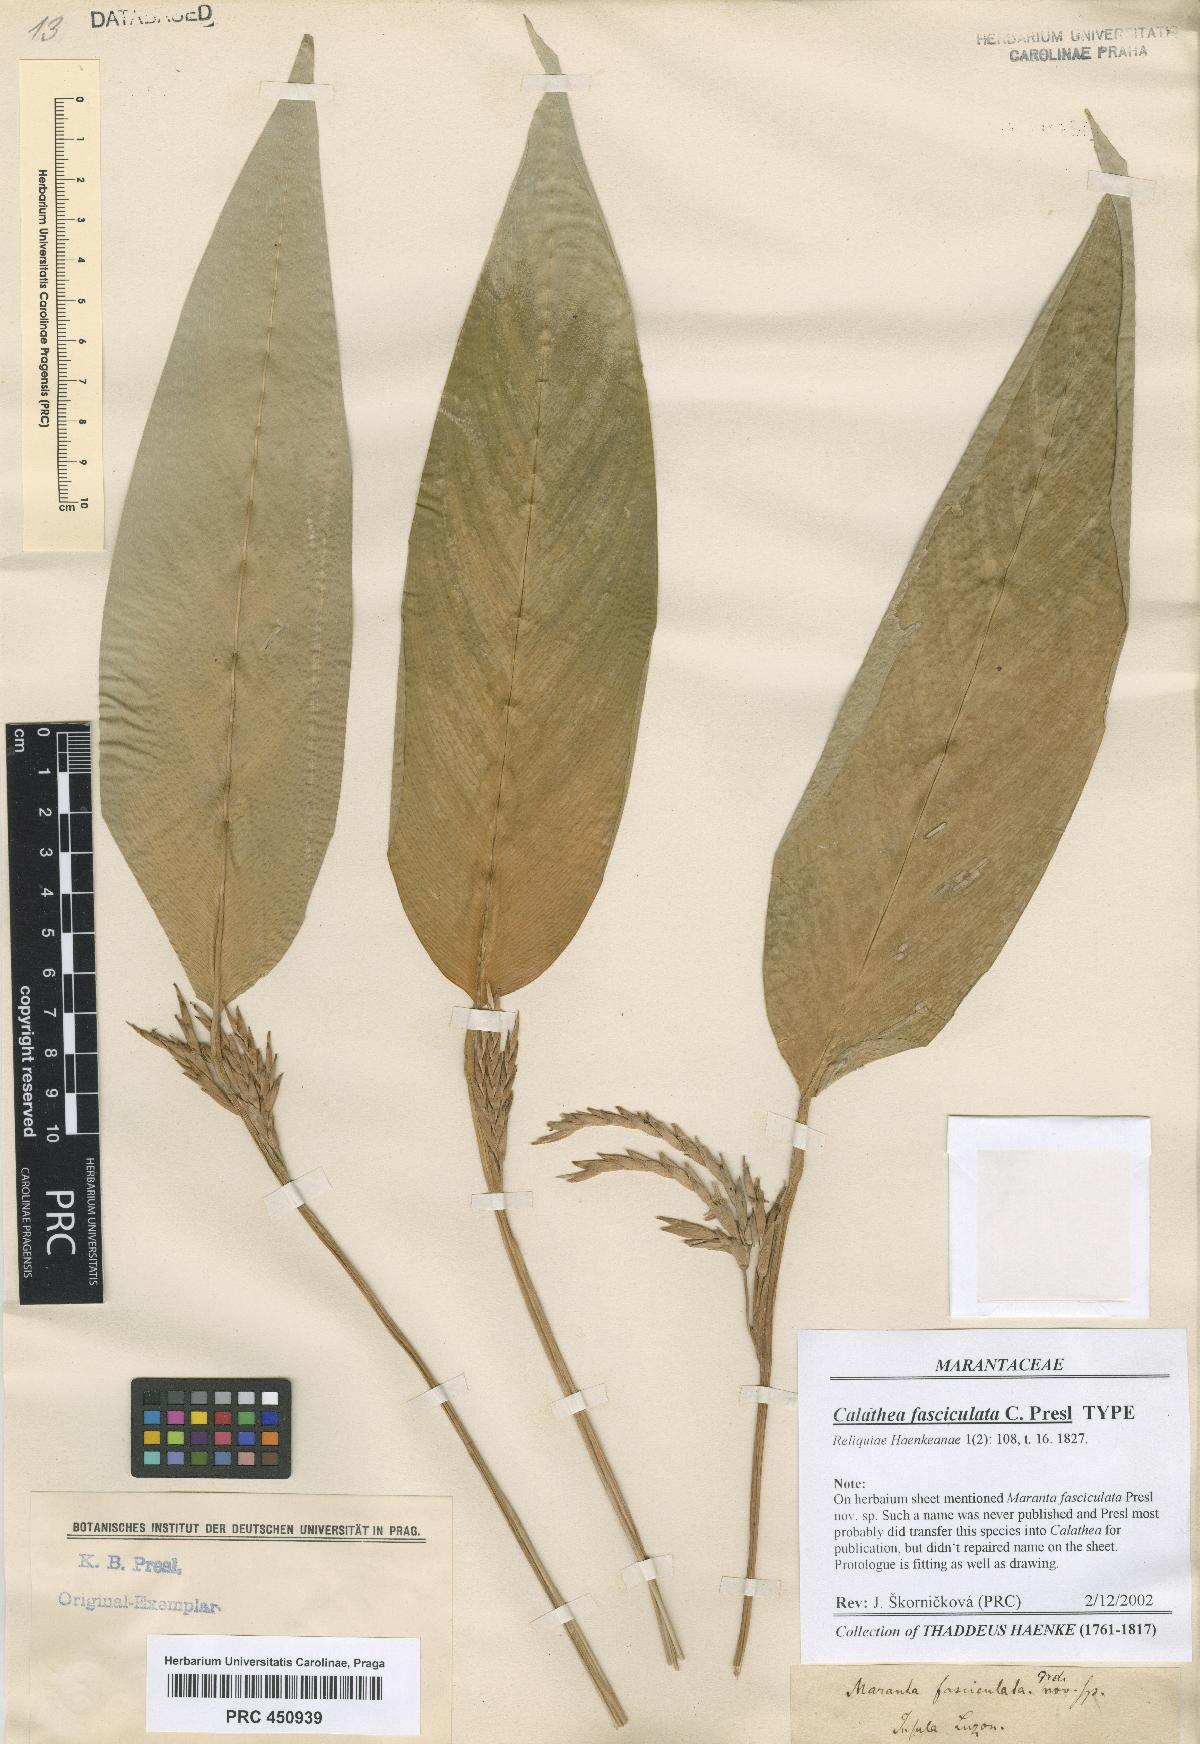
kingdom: Plantae
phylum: Tracheophyta
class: Liliopsida
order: Zingiberales
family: Marantaceae
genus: Phrynium
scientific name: Phrynium fasciculatum
